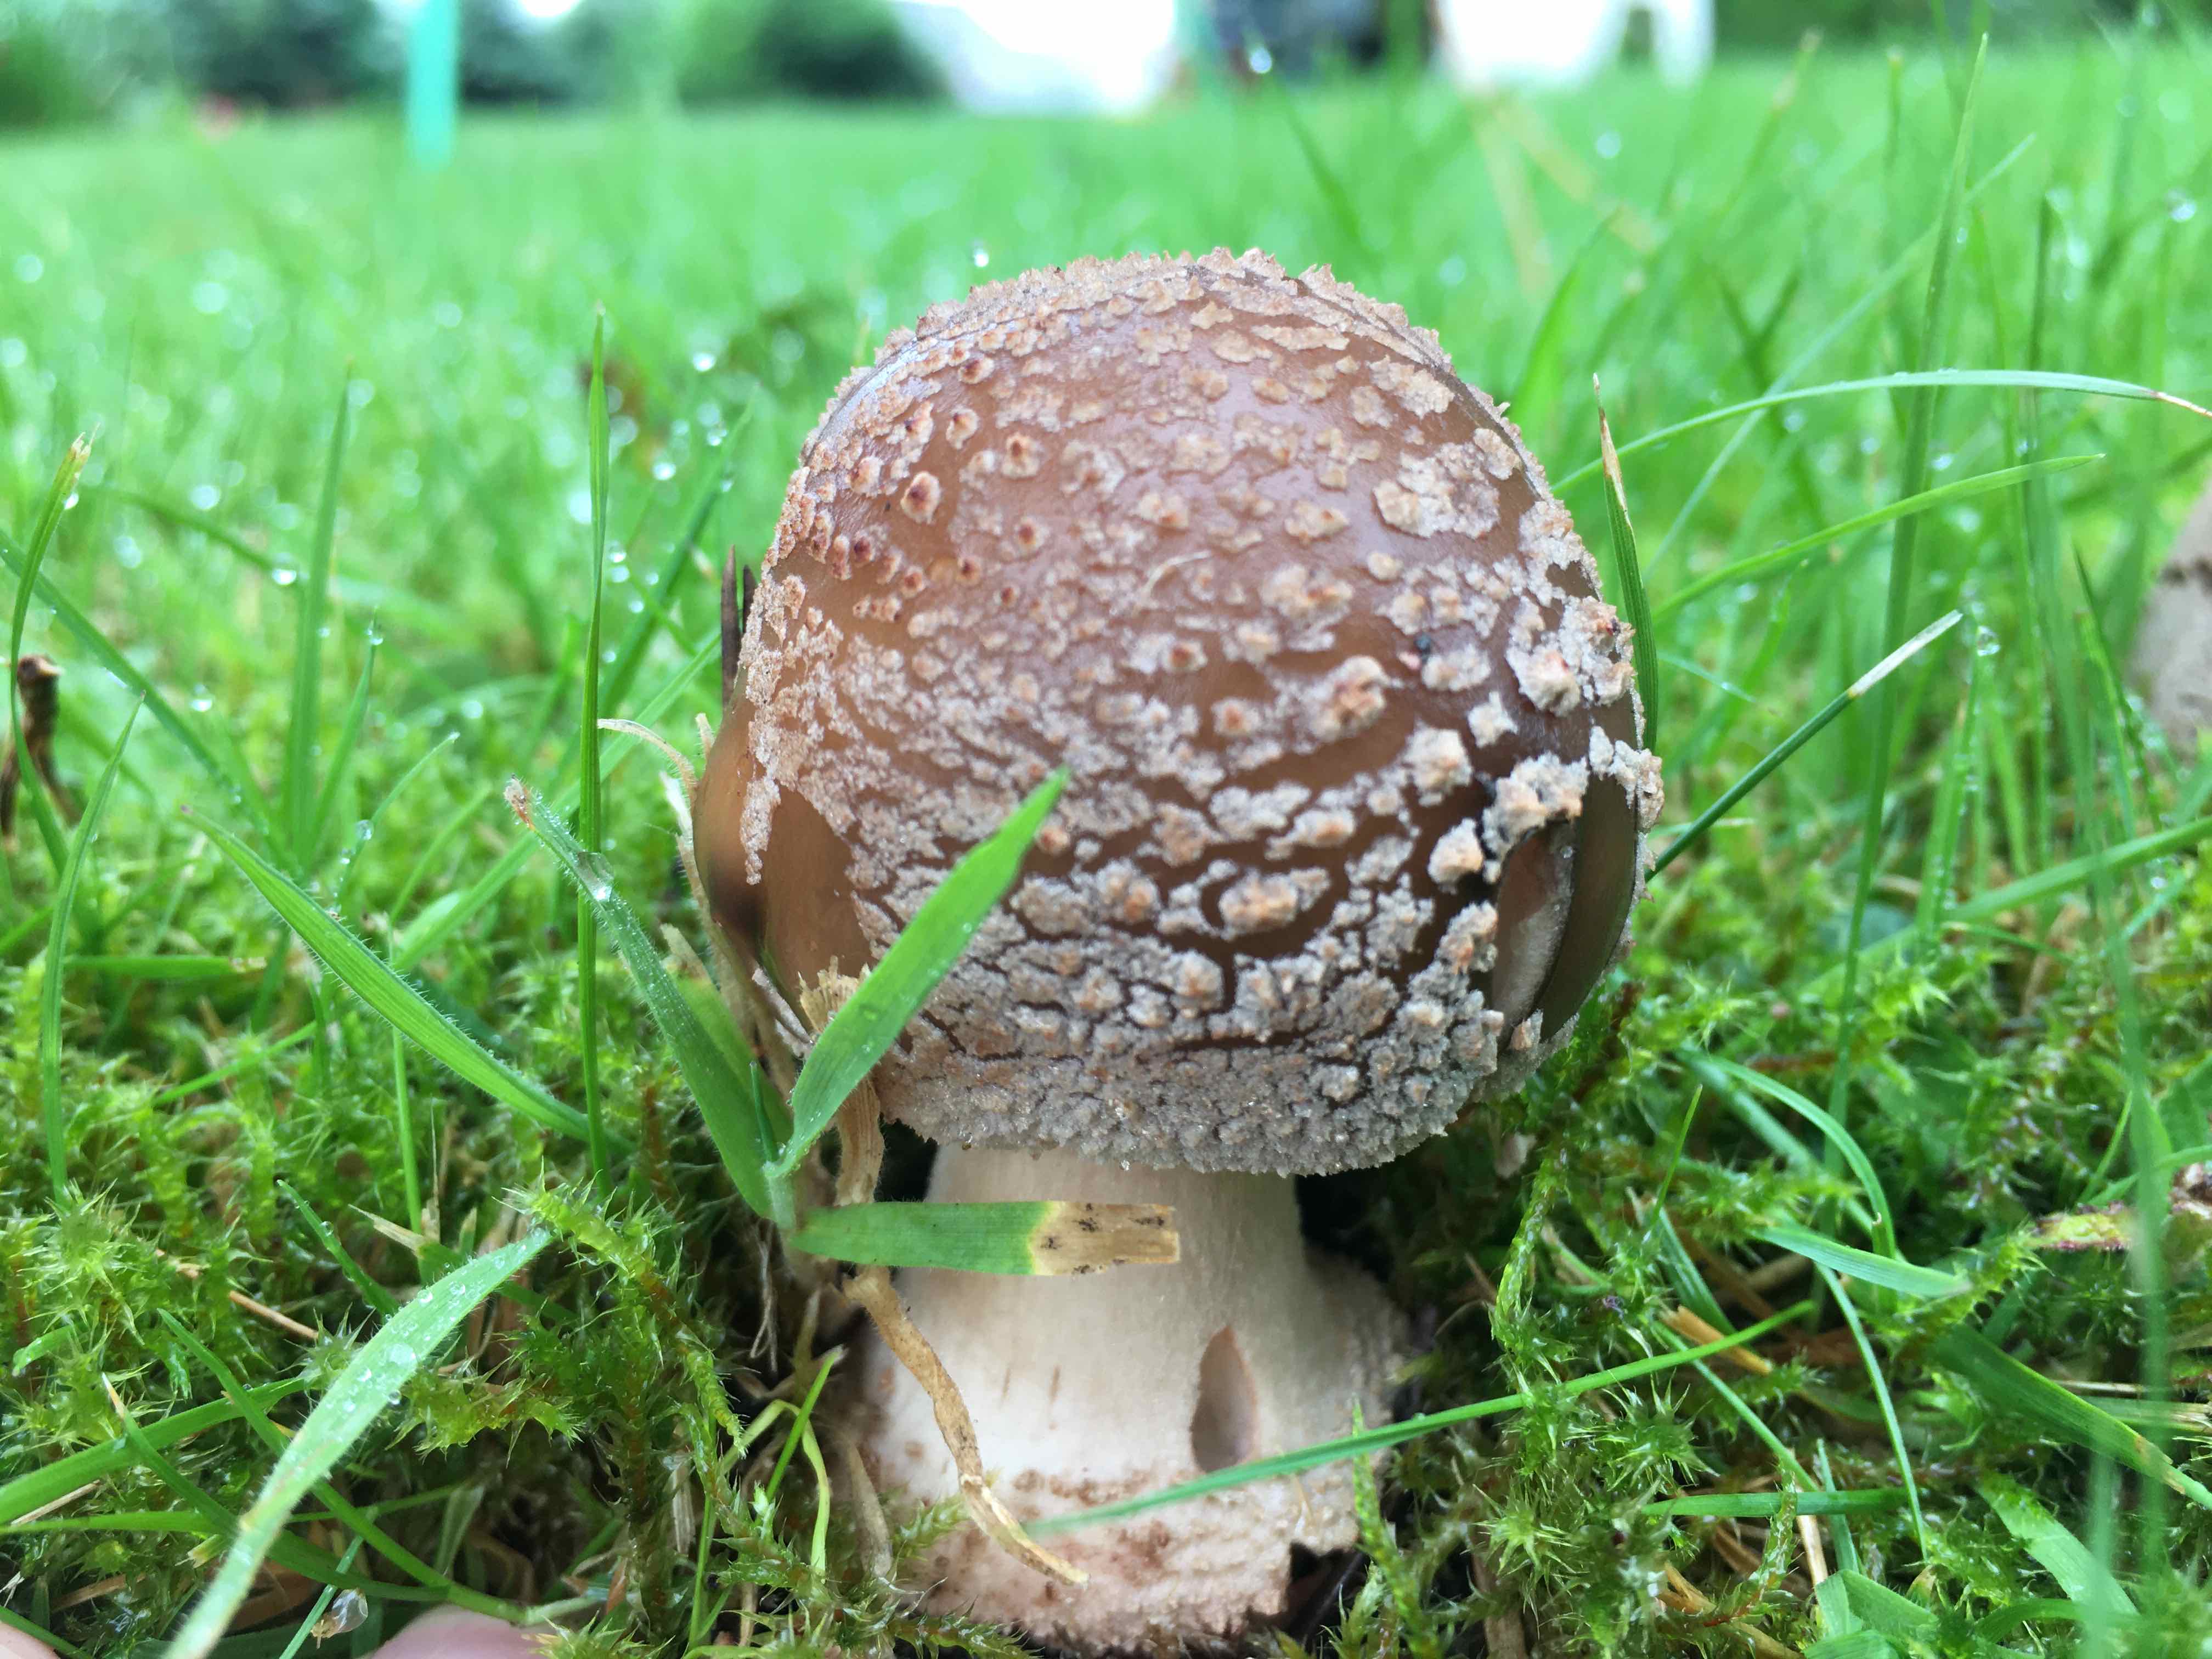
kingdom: Fungi
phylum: Basidiomycota
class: Agaricomycetes
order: Agaricales
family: Amanitaceae
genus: Amanita
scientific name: Amanita rubescens
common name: rødmende fluesvamp
